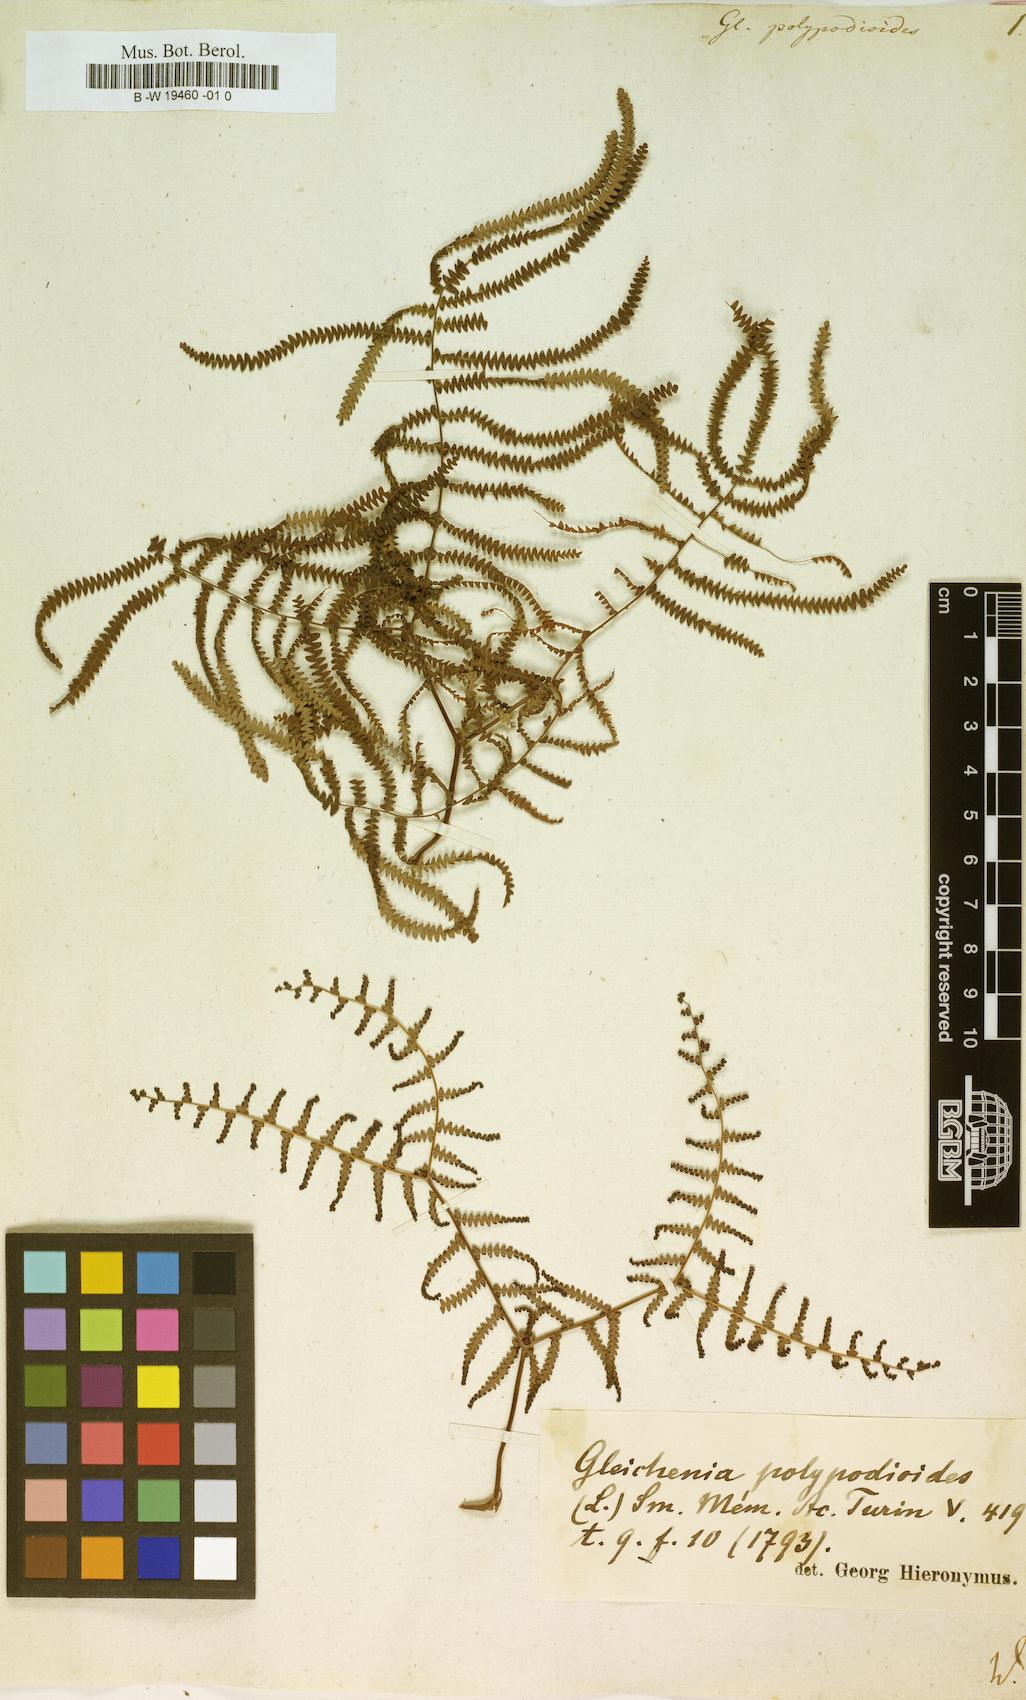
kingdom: Plantae
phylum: Tracheophyta
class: Polypodiopsida
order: Gleicheniales
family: Gleicheniaceae
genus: Gleichenia
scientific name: Gleichenia polypodioides
